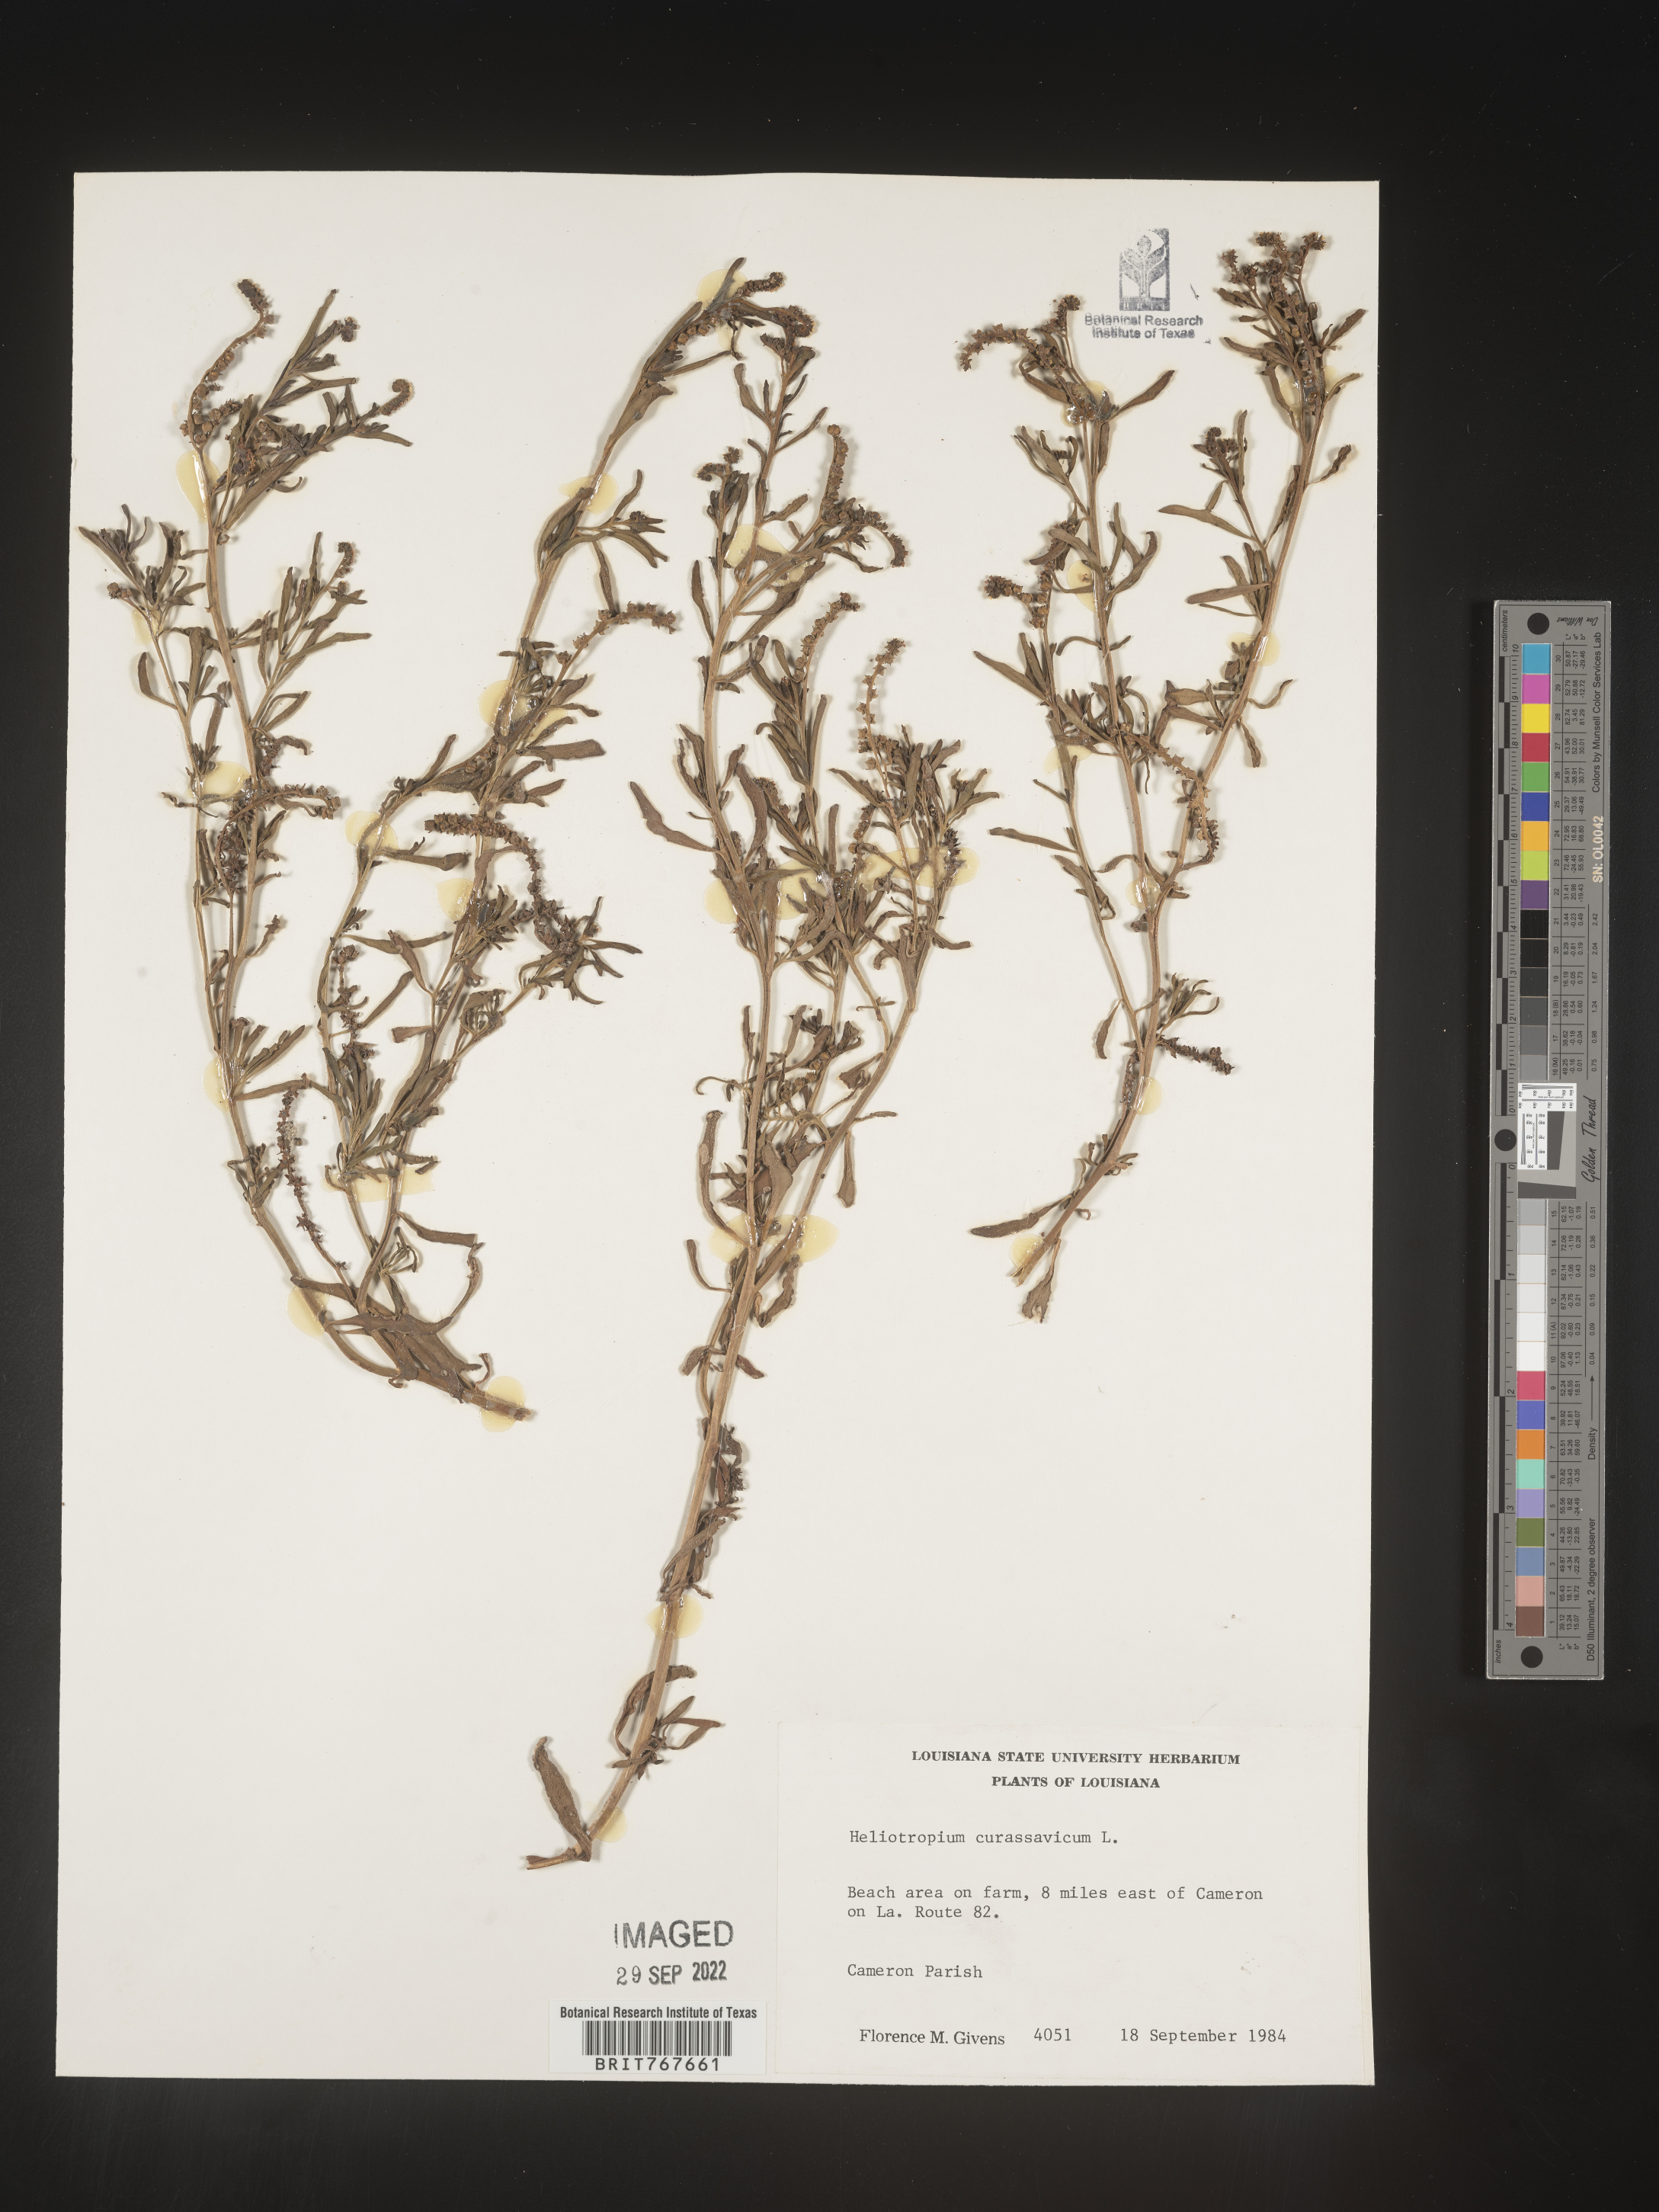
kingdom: Plantae
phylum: Tracheophyta
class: Magnoliopsida
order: Boraginales
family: Heliotropiaceae
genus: Heliotropium
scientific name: Heliotropium curassavicum
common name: Seaside heliotrope
